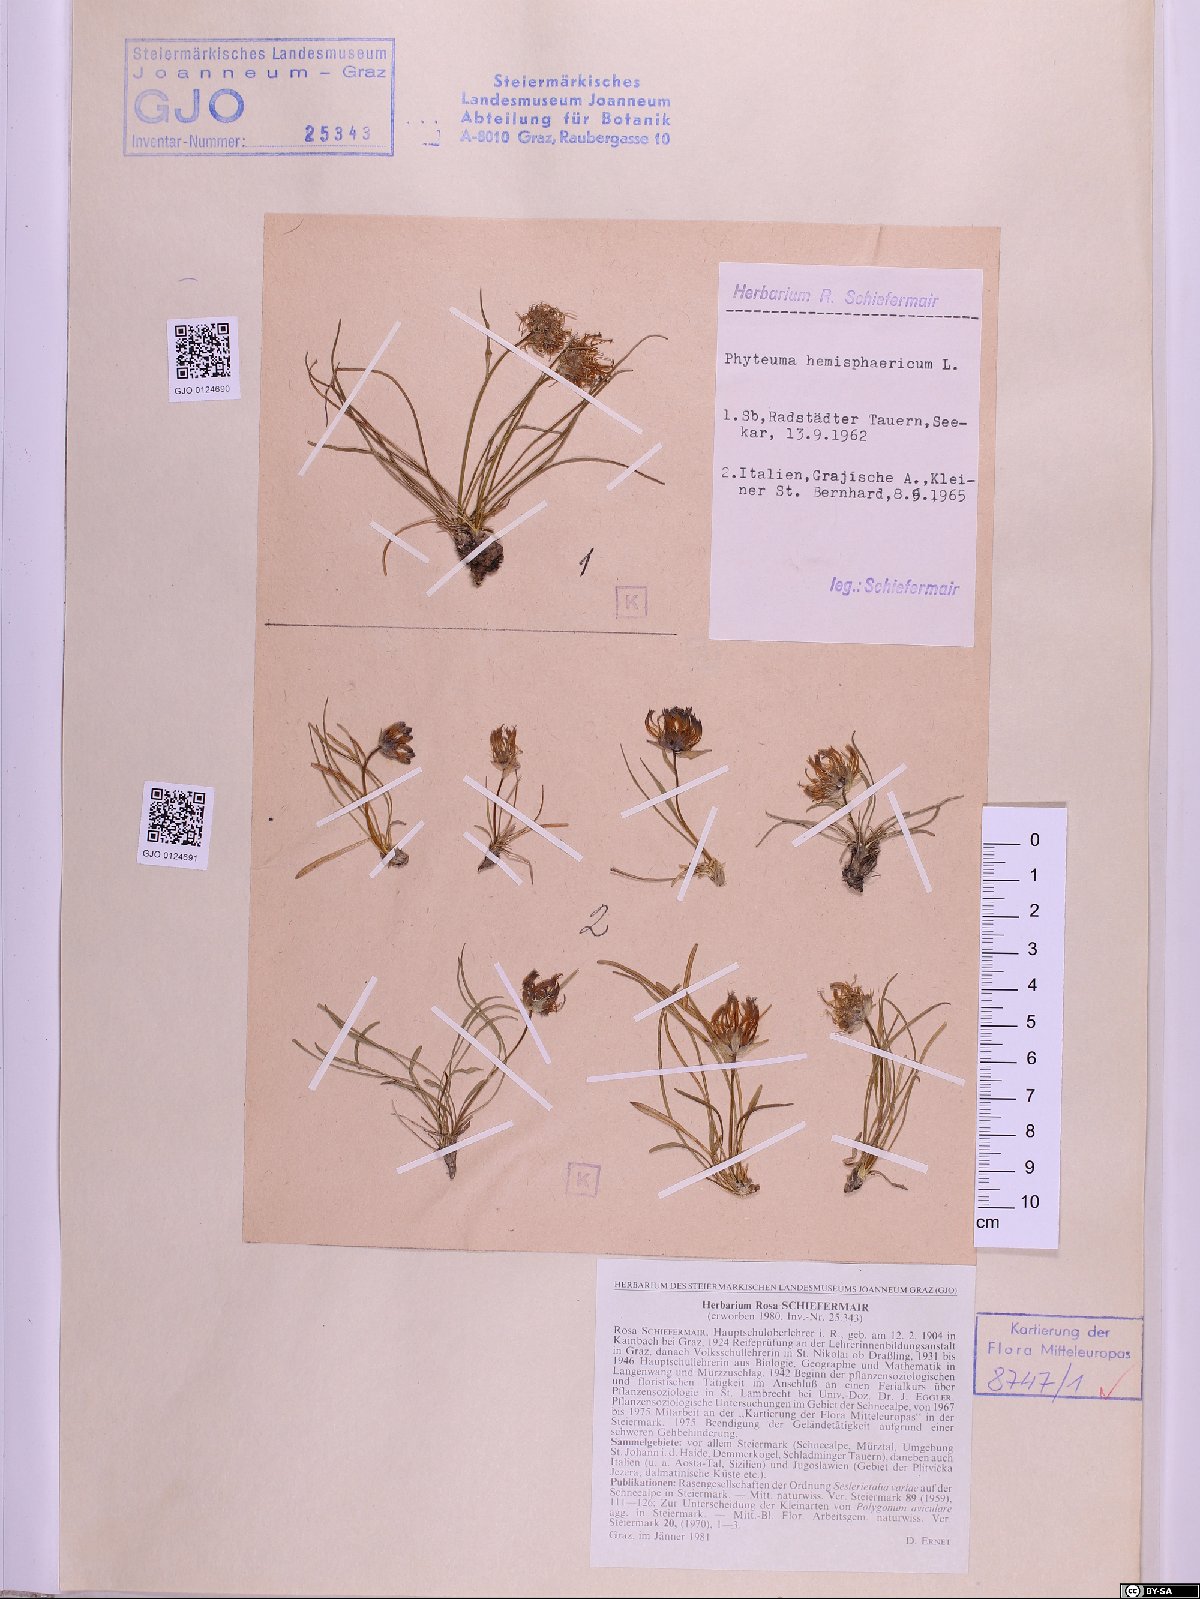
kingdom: Plantae
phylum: Tracheophyta
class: Magnoliopsida
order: Asterales
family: Campanulaceae
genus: Phyteuma
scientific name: Phyteuma hemisphaericum
